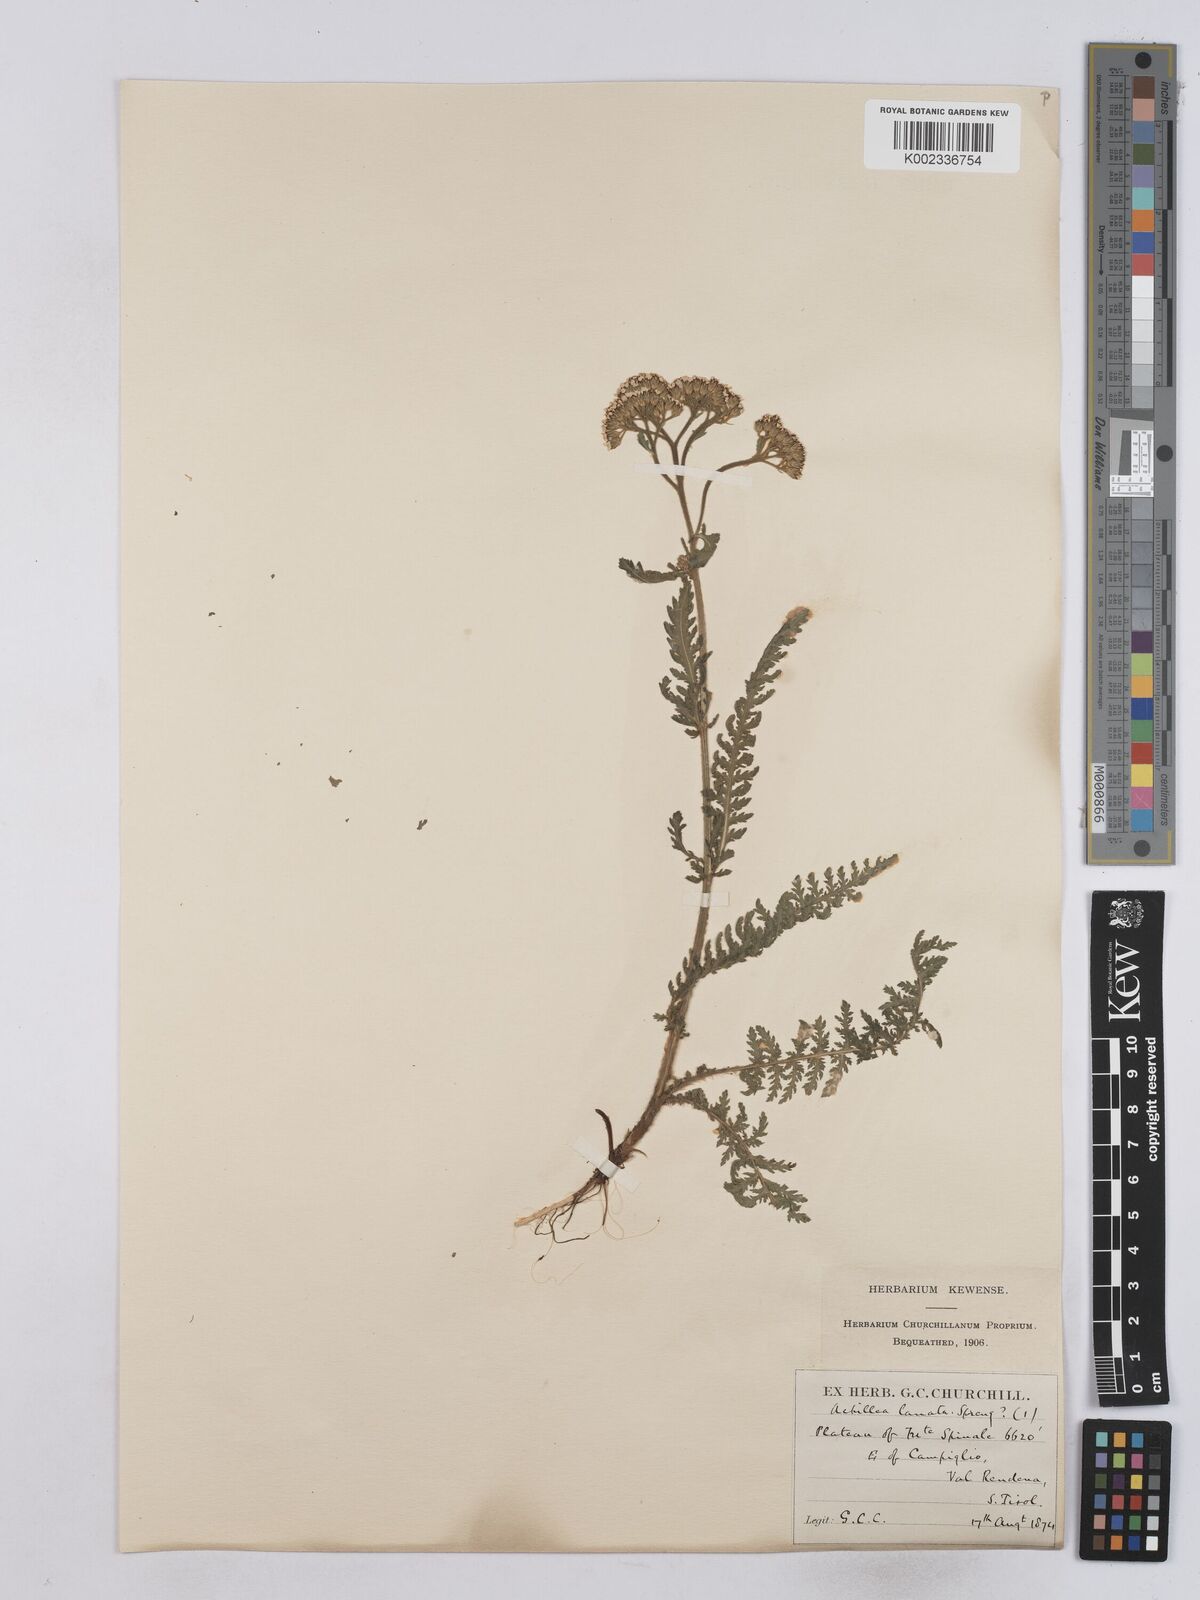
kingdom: Plantae
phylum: Tracheophyta
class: Magnoliopsida
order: Asterales
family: Asteraceae
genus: Achillea
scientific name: Achillea setacea
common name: Bristly yarrow
